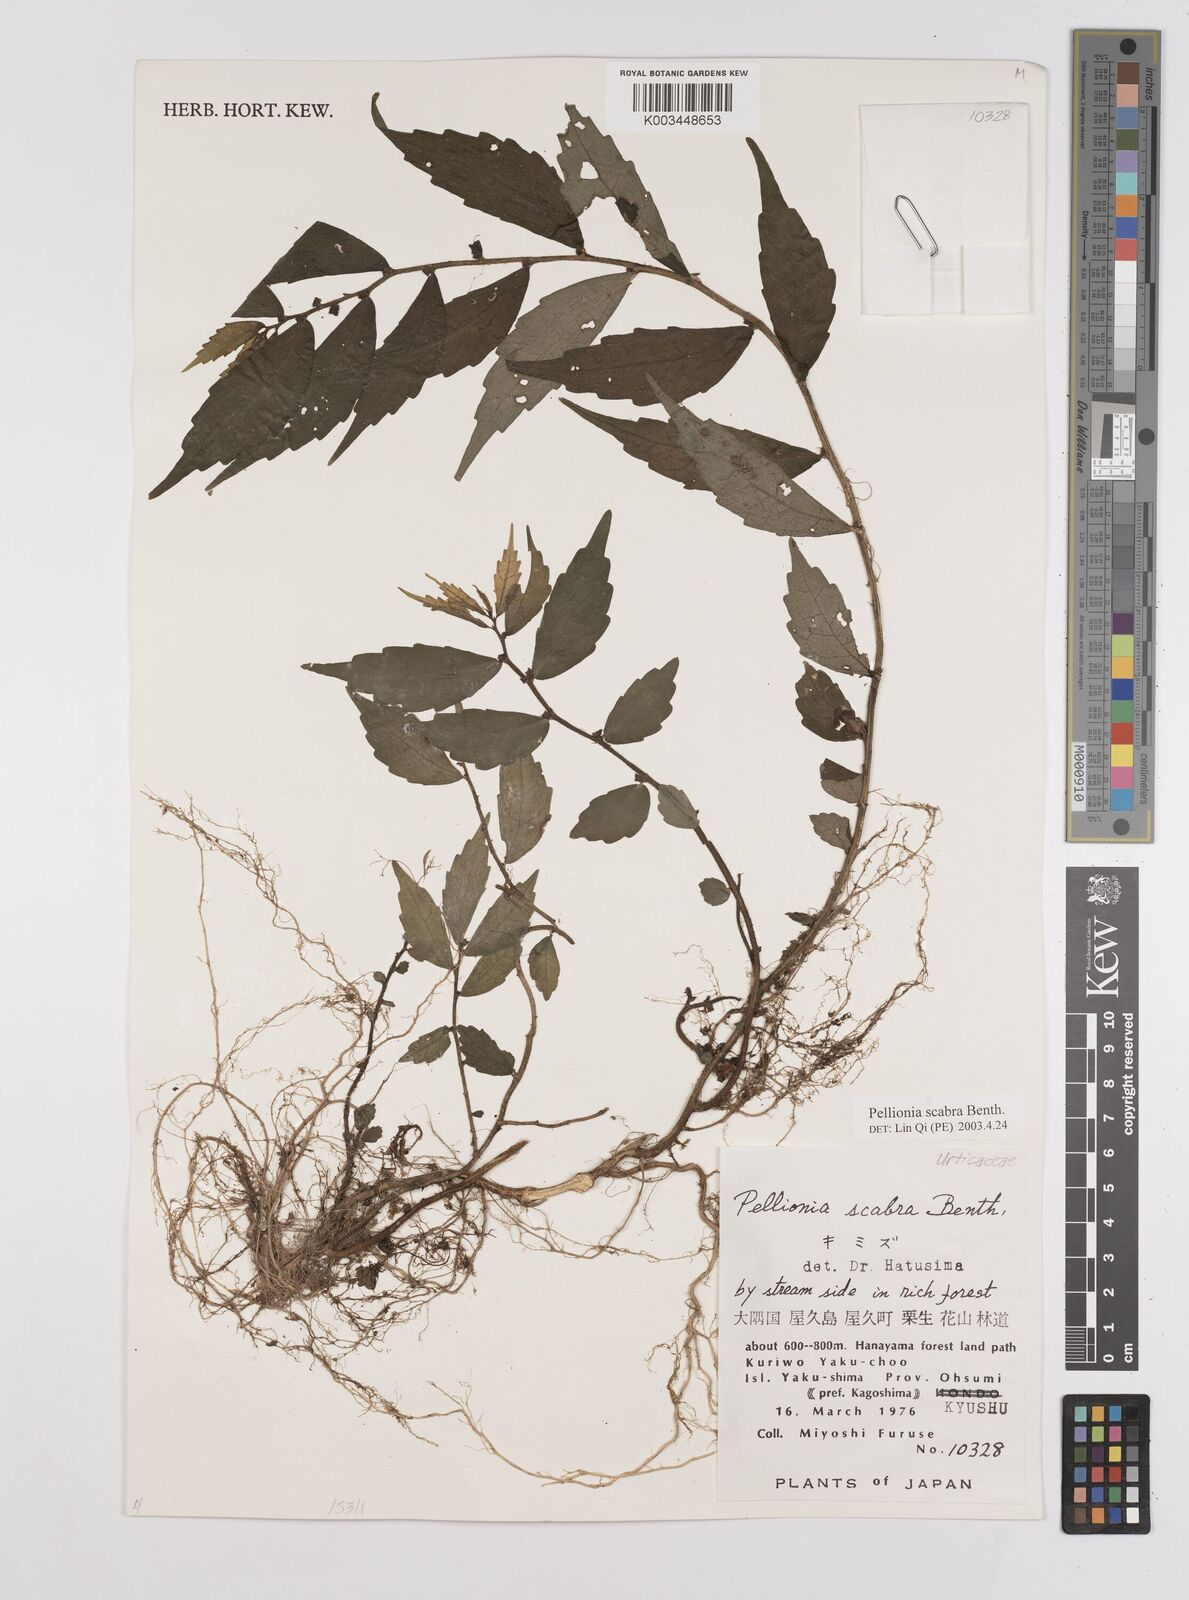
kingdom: Plantae
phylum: Tracheophyta
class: Magnoliopsida
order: Rosales
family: Urticaceae
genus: Elatostema
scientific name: Elatostema
